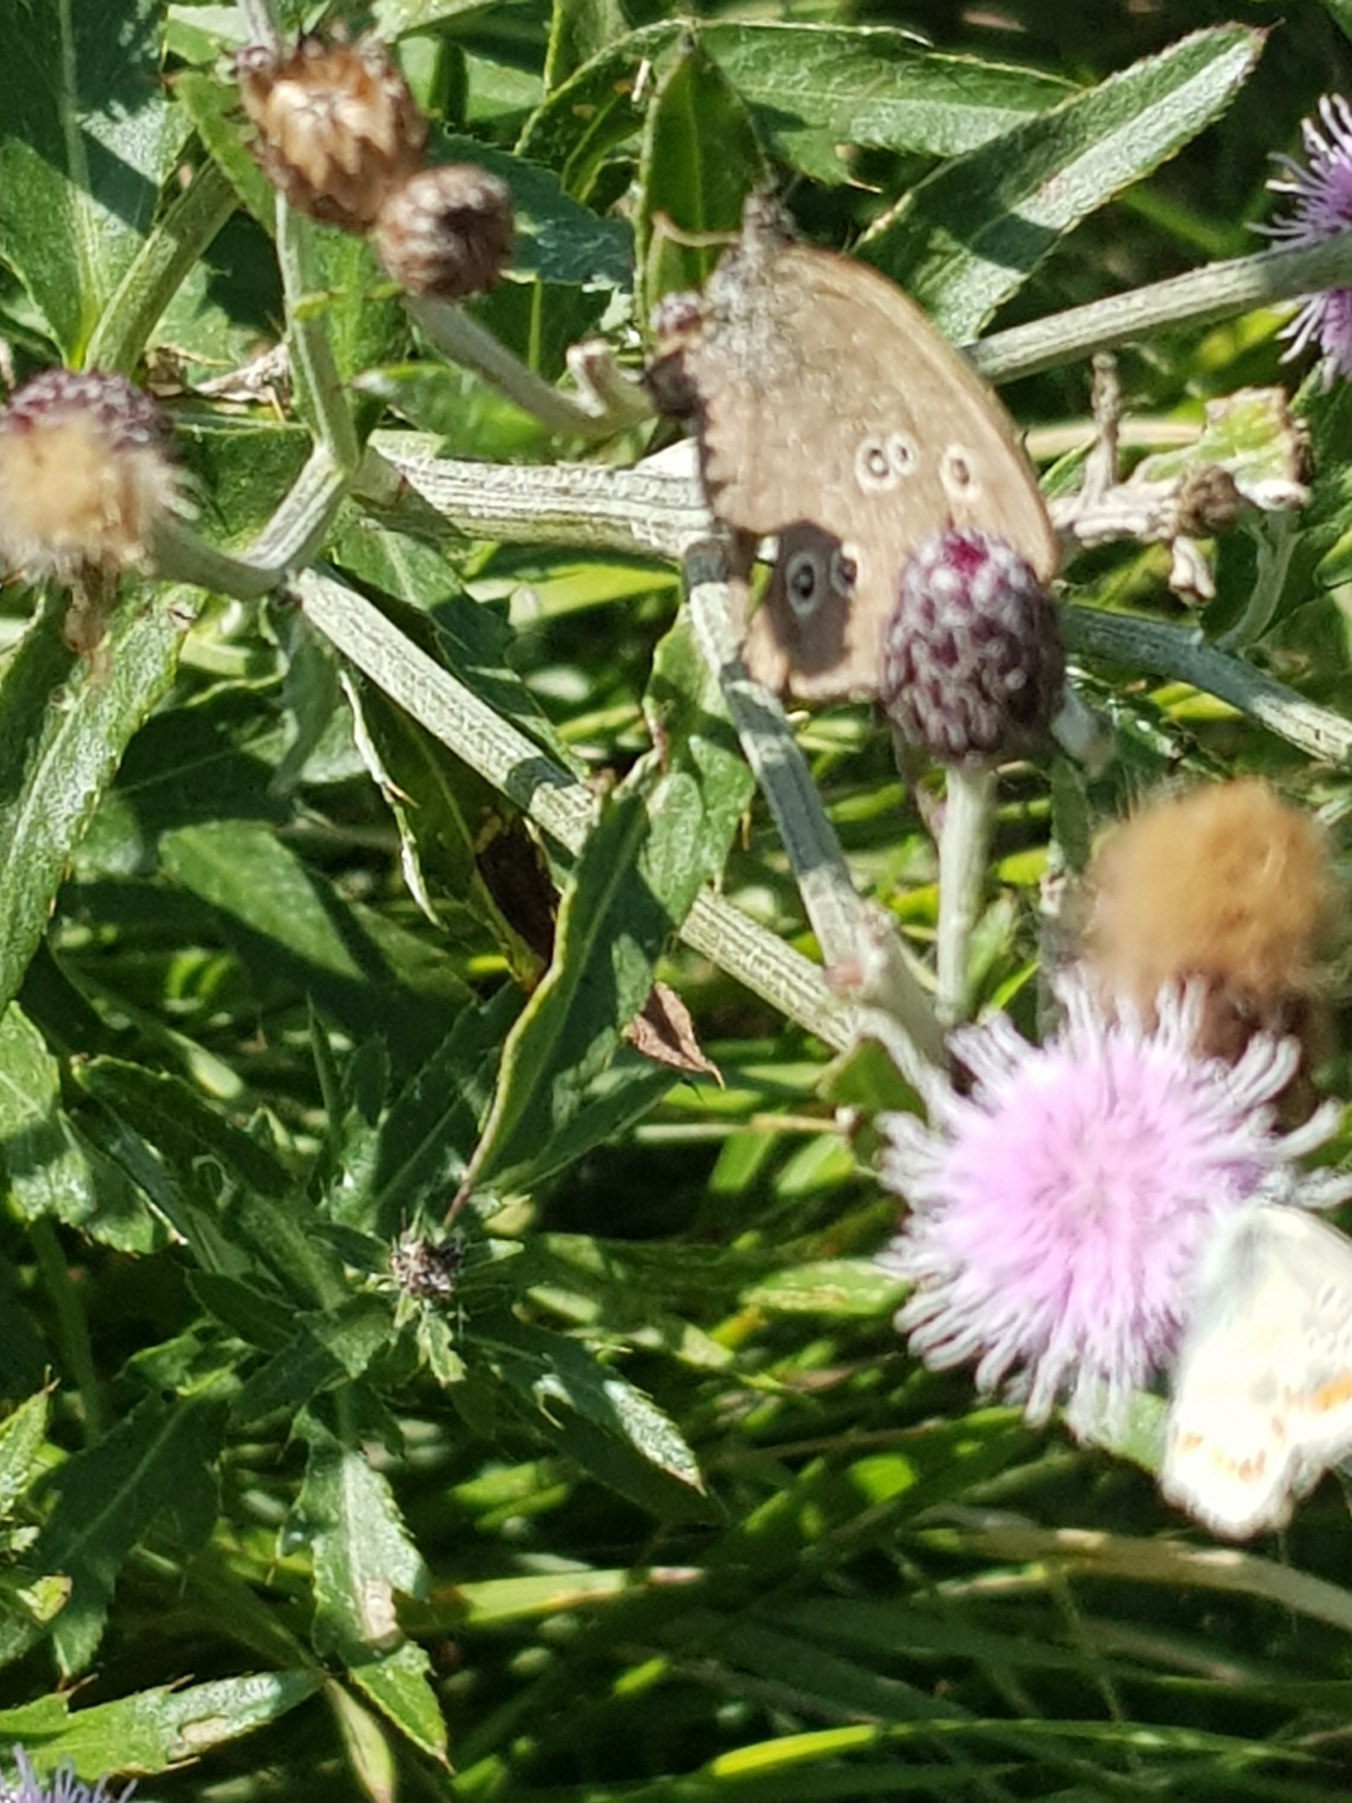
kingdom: Animalia
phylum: Arthropoda
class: Insecta
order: Lepidoptera
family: Nymphalidae
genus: Aphantopus
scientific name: Aphantopus hyperantus
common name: Engrandøje
